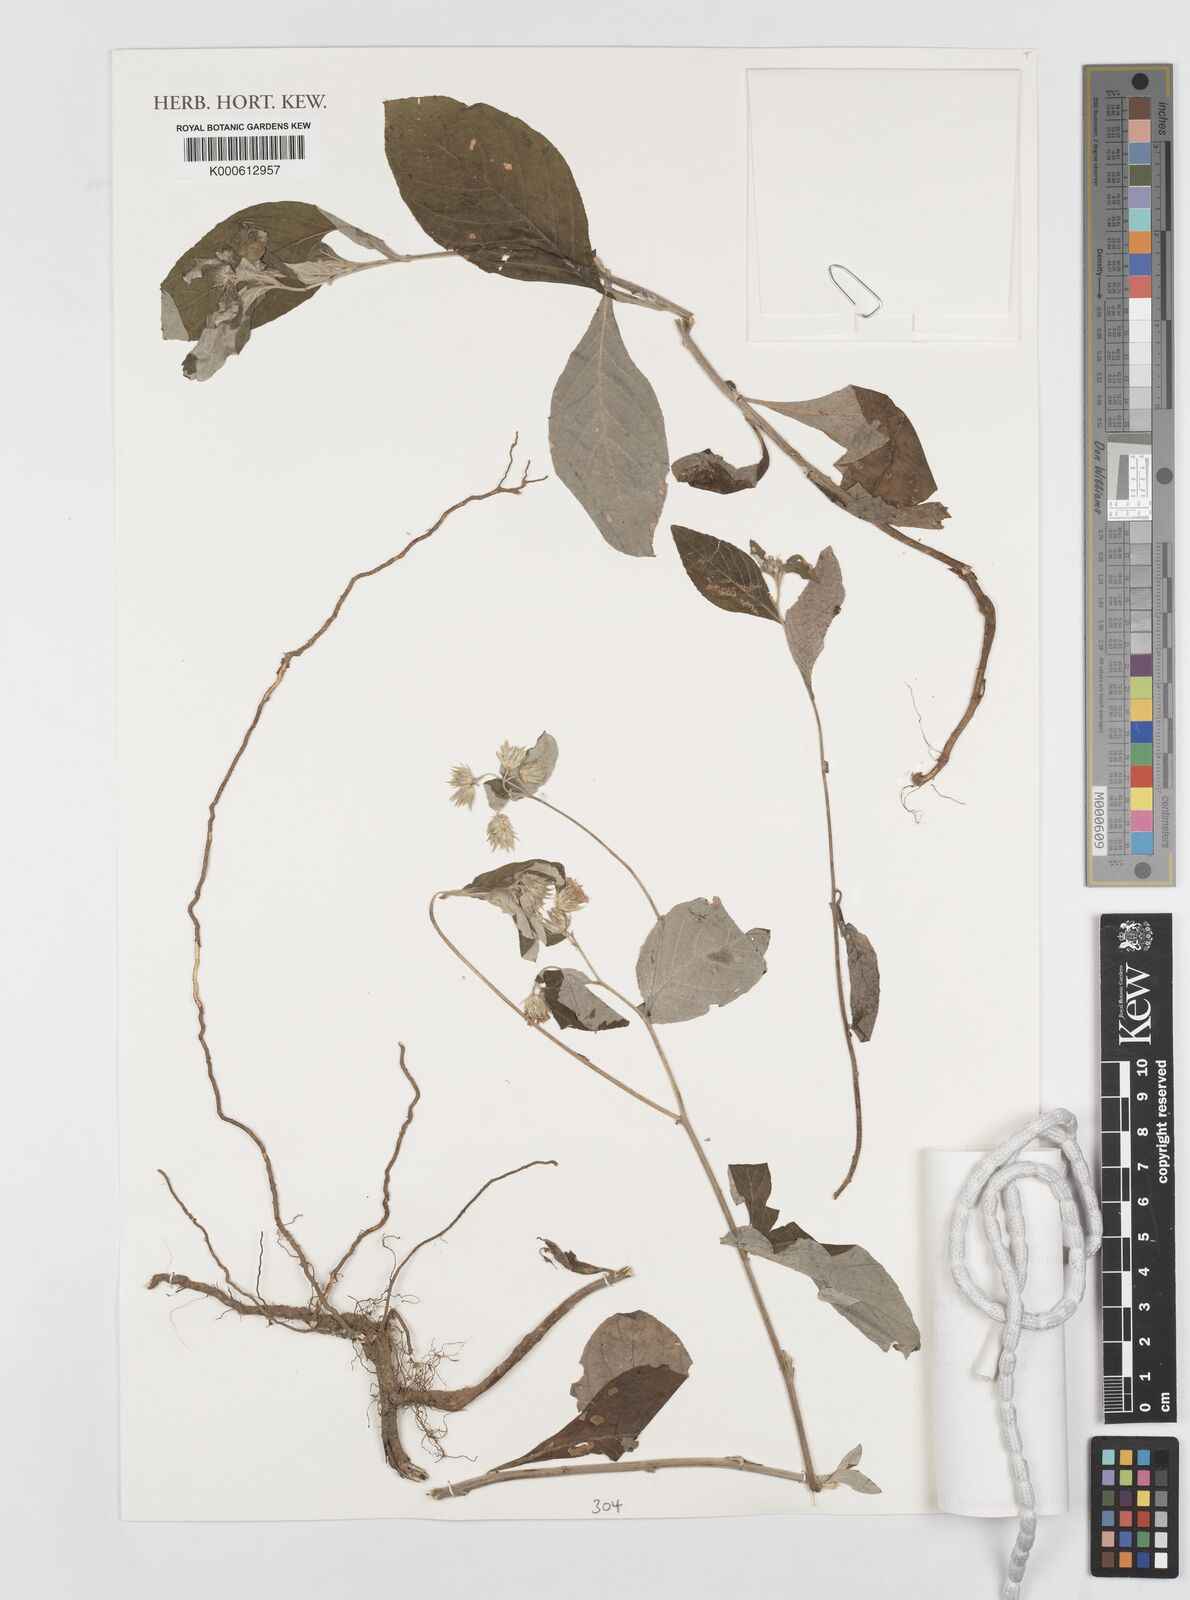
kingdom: Plantae
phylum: Tracheophyta
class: Magnoliopsida
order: Asterales
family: Asteraceae
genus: Gutenbergia
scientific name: Gutenbergia cordifolia
